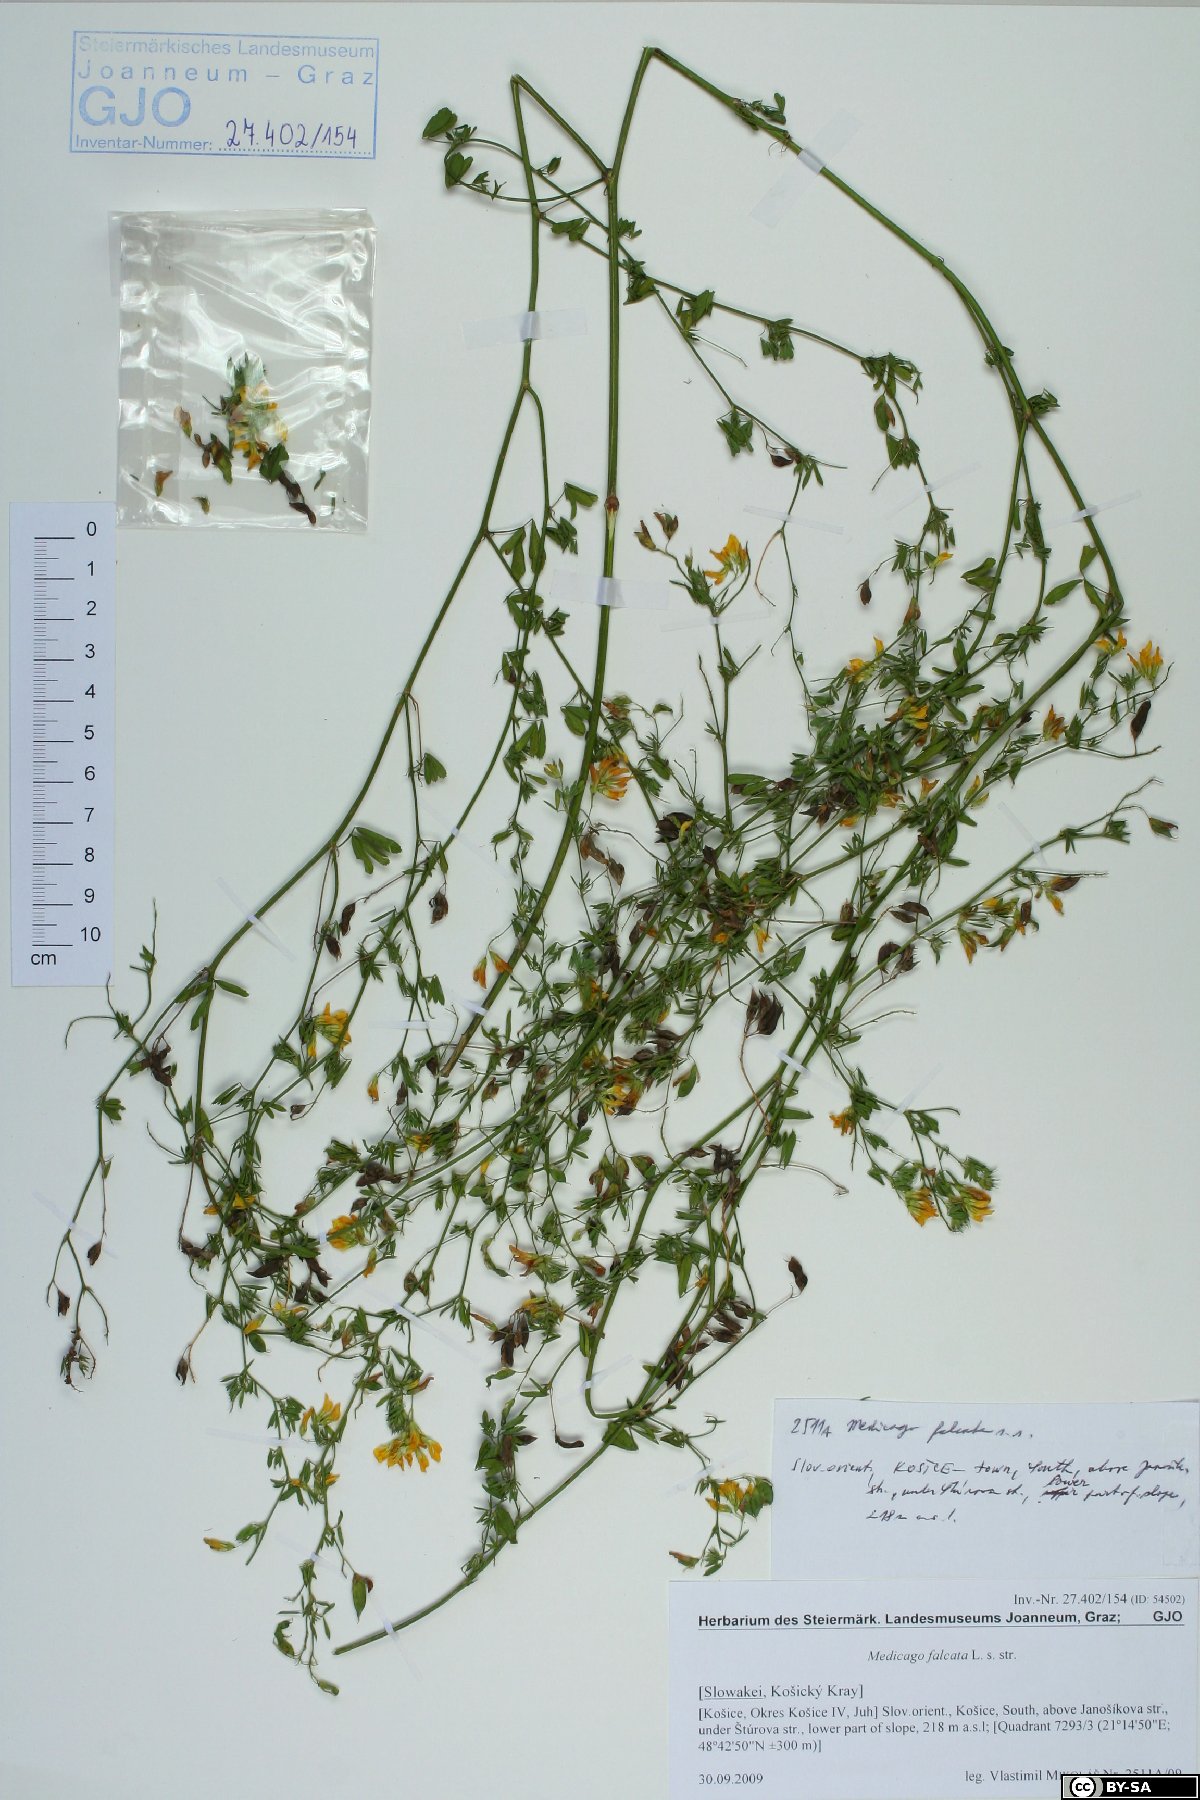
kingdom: Plantae
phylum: Tracheophyta
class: Magnoliopsida
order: Fabales
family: Fabaceae
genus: Medicago
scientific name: Medicago falcata
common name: Sickle medick
